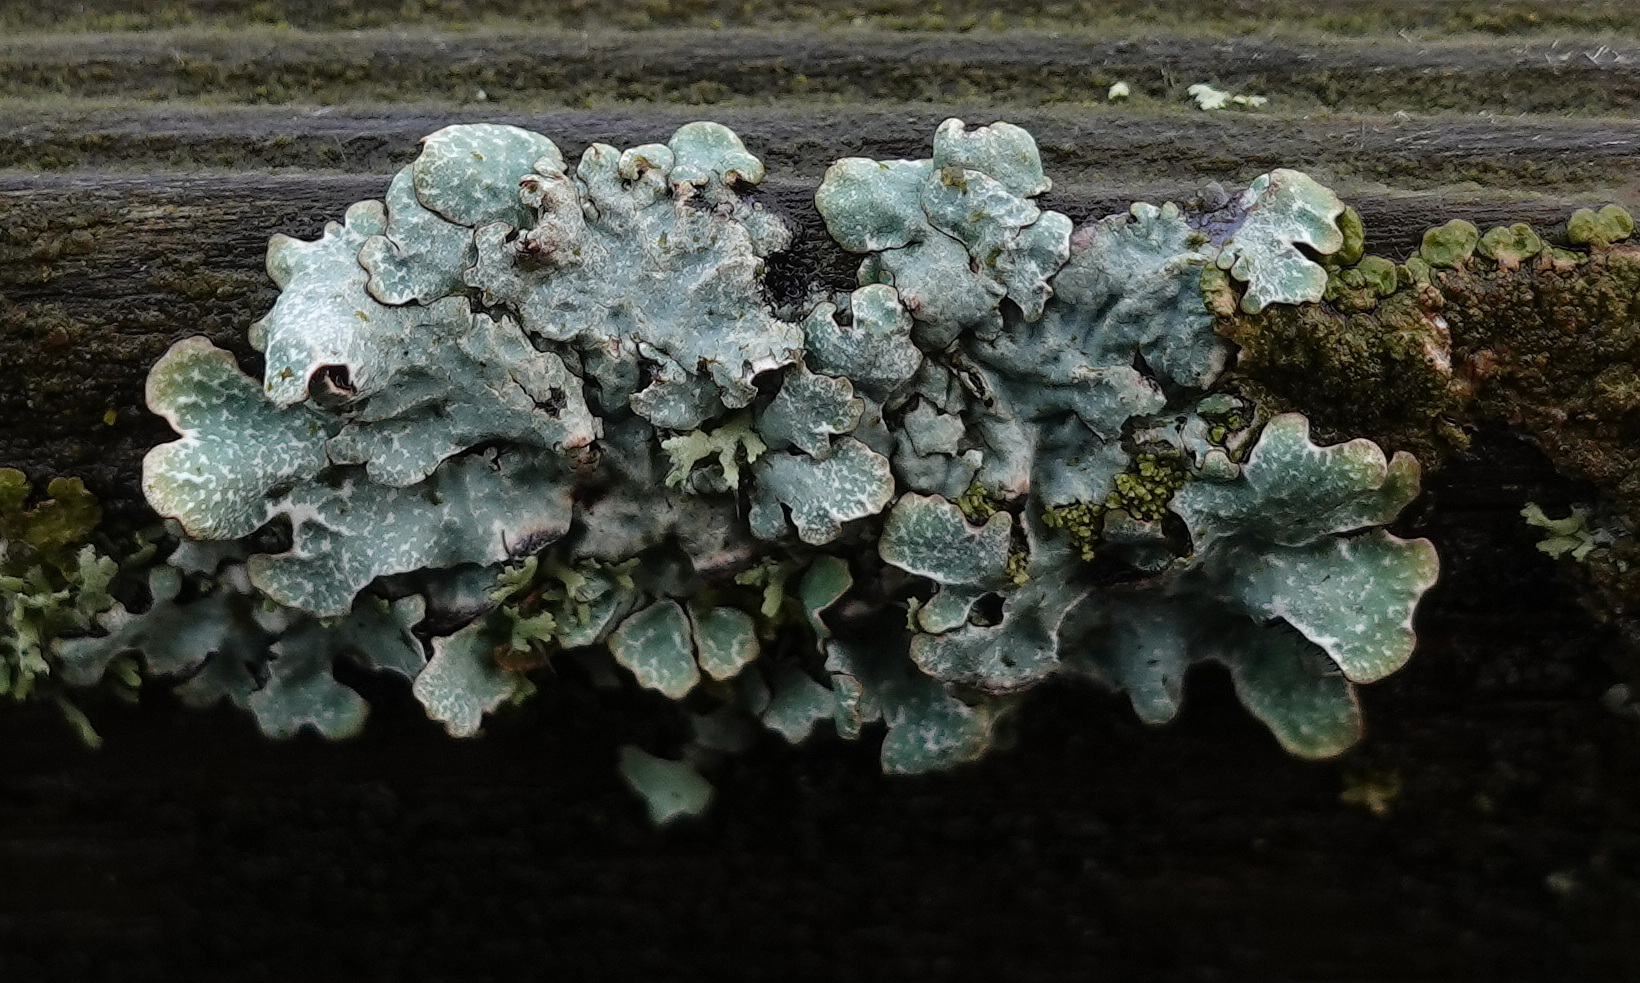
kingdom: Fungi
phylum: Ascomycota
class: Lecanoromycetes
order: Lecanorales
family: Parmeliaceae
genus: Parmelia
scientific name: Parmelia sulcata
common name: rynket skållav
